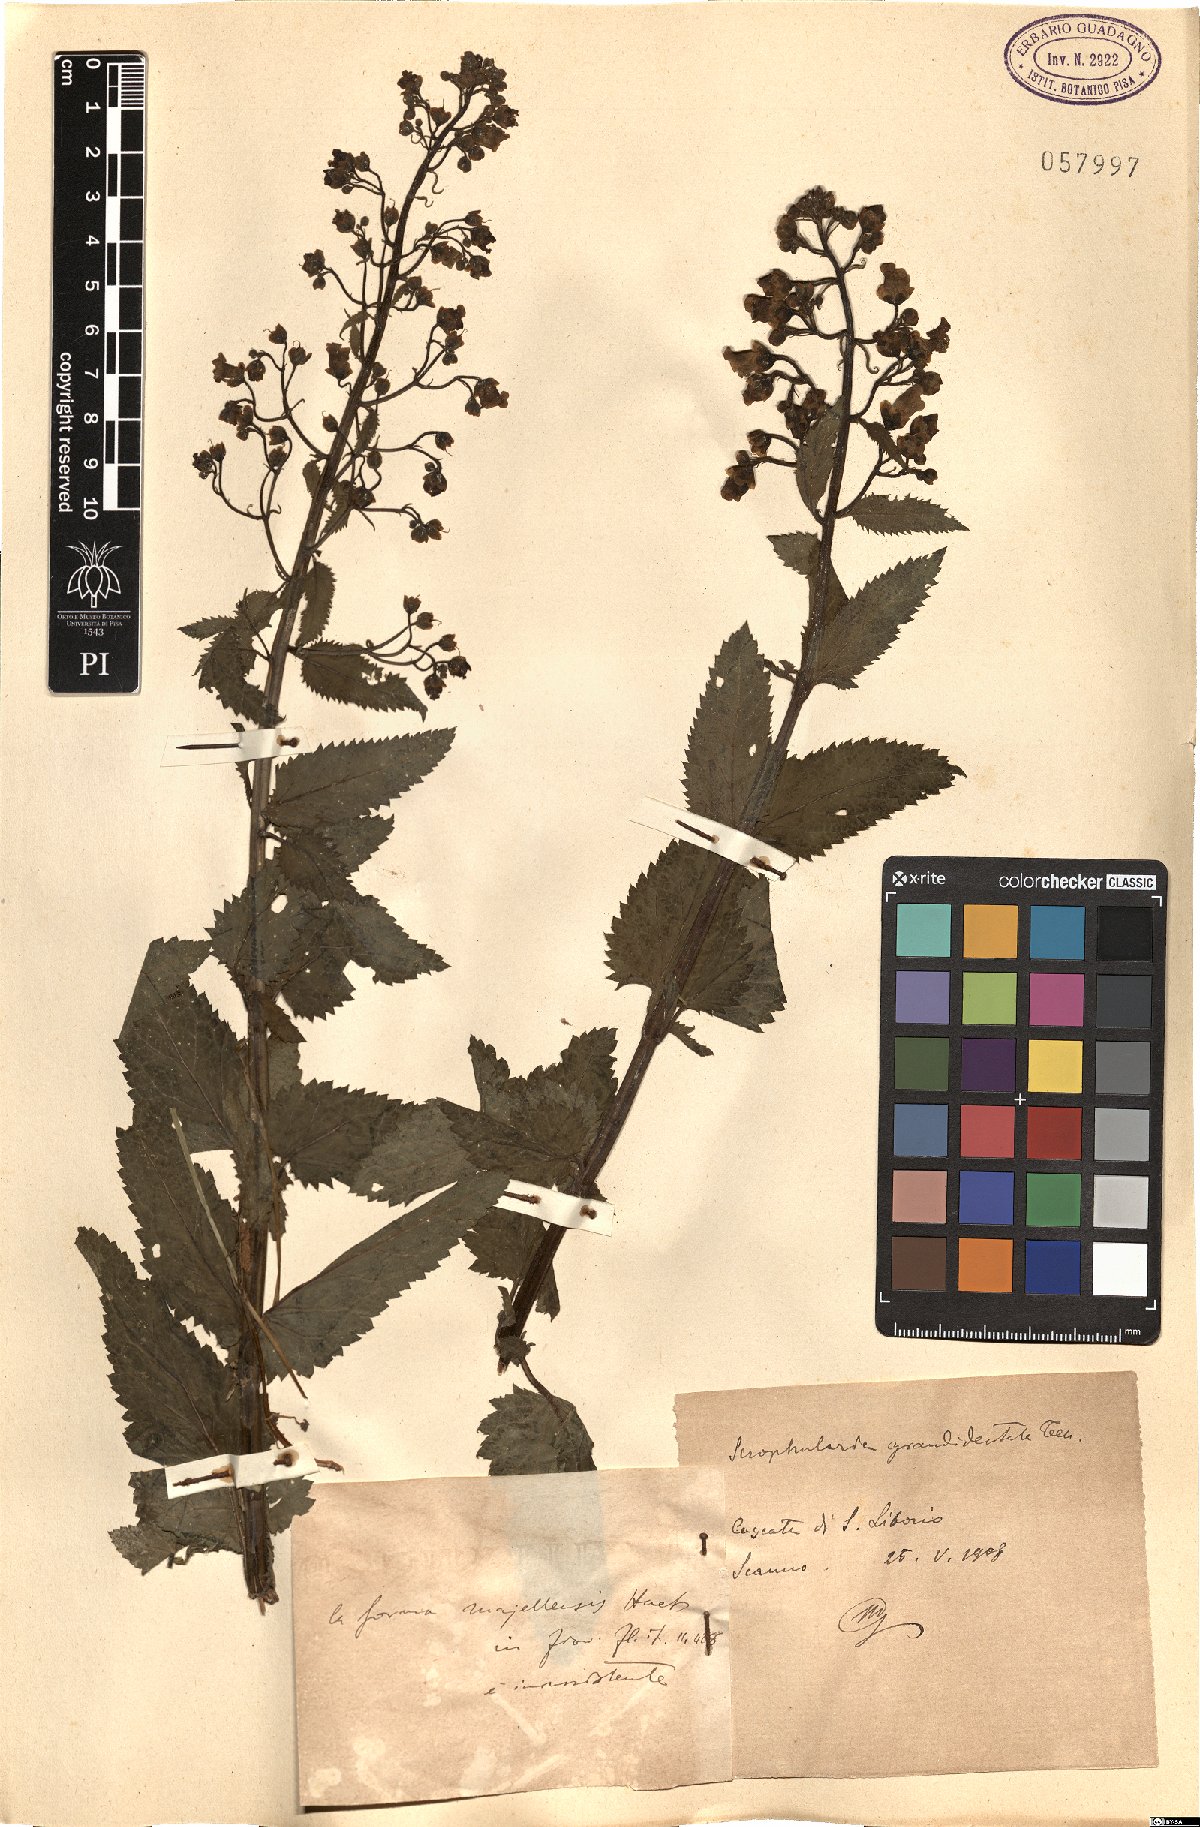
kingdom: Plantae
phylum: Tracheophyta
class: Magnoliopsida
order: Lamiales
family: Scrophulariaceae
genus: Scrophularia
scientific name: Scrophularia scopolii
